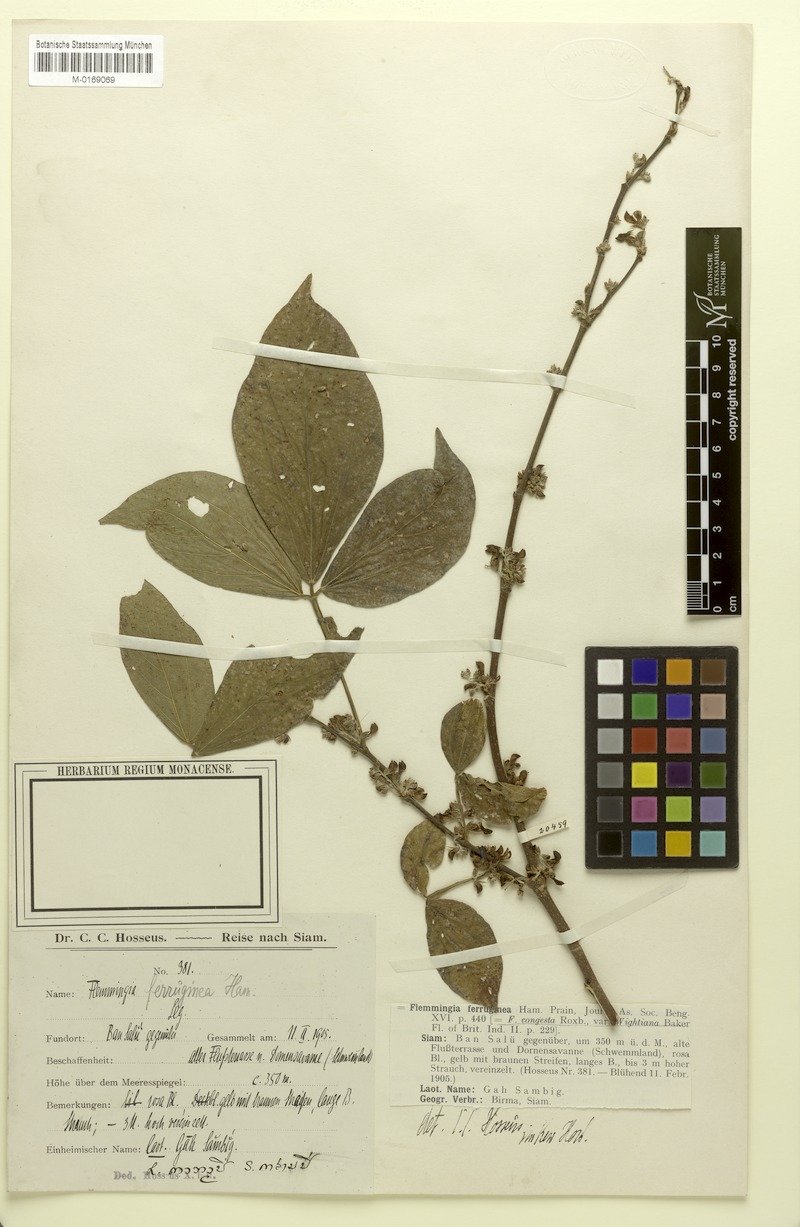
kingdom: Plantae
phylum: Tracheophyta
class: Magnoliopsida
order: Fabales
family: Fabaceae
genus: Flemingia
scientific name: Flemingia wightiana
